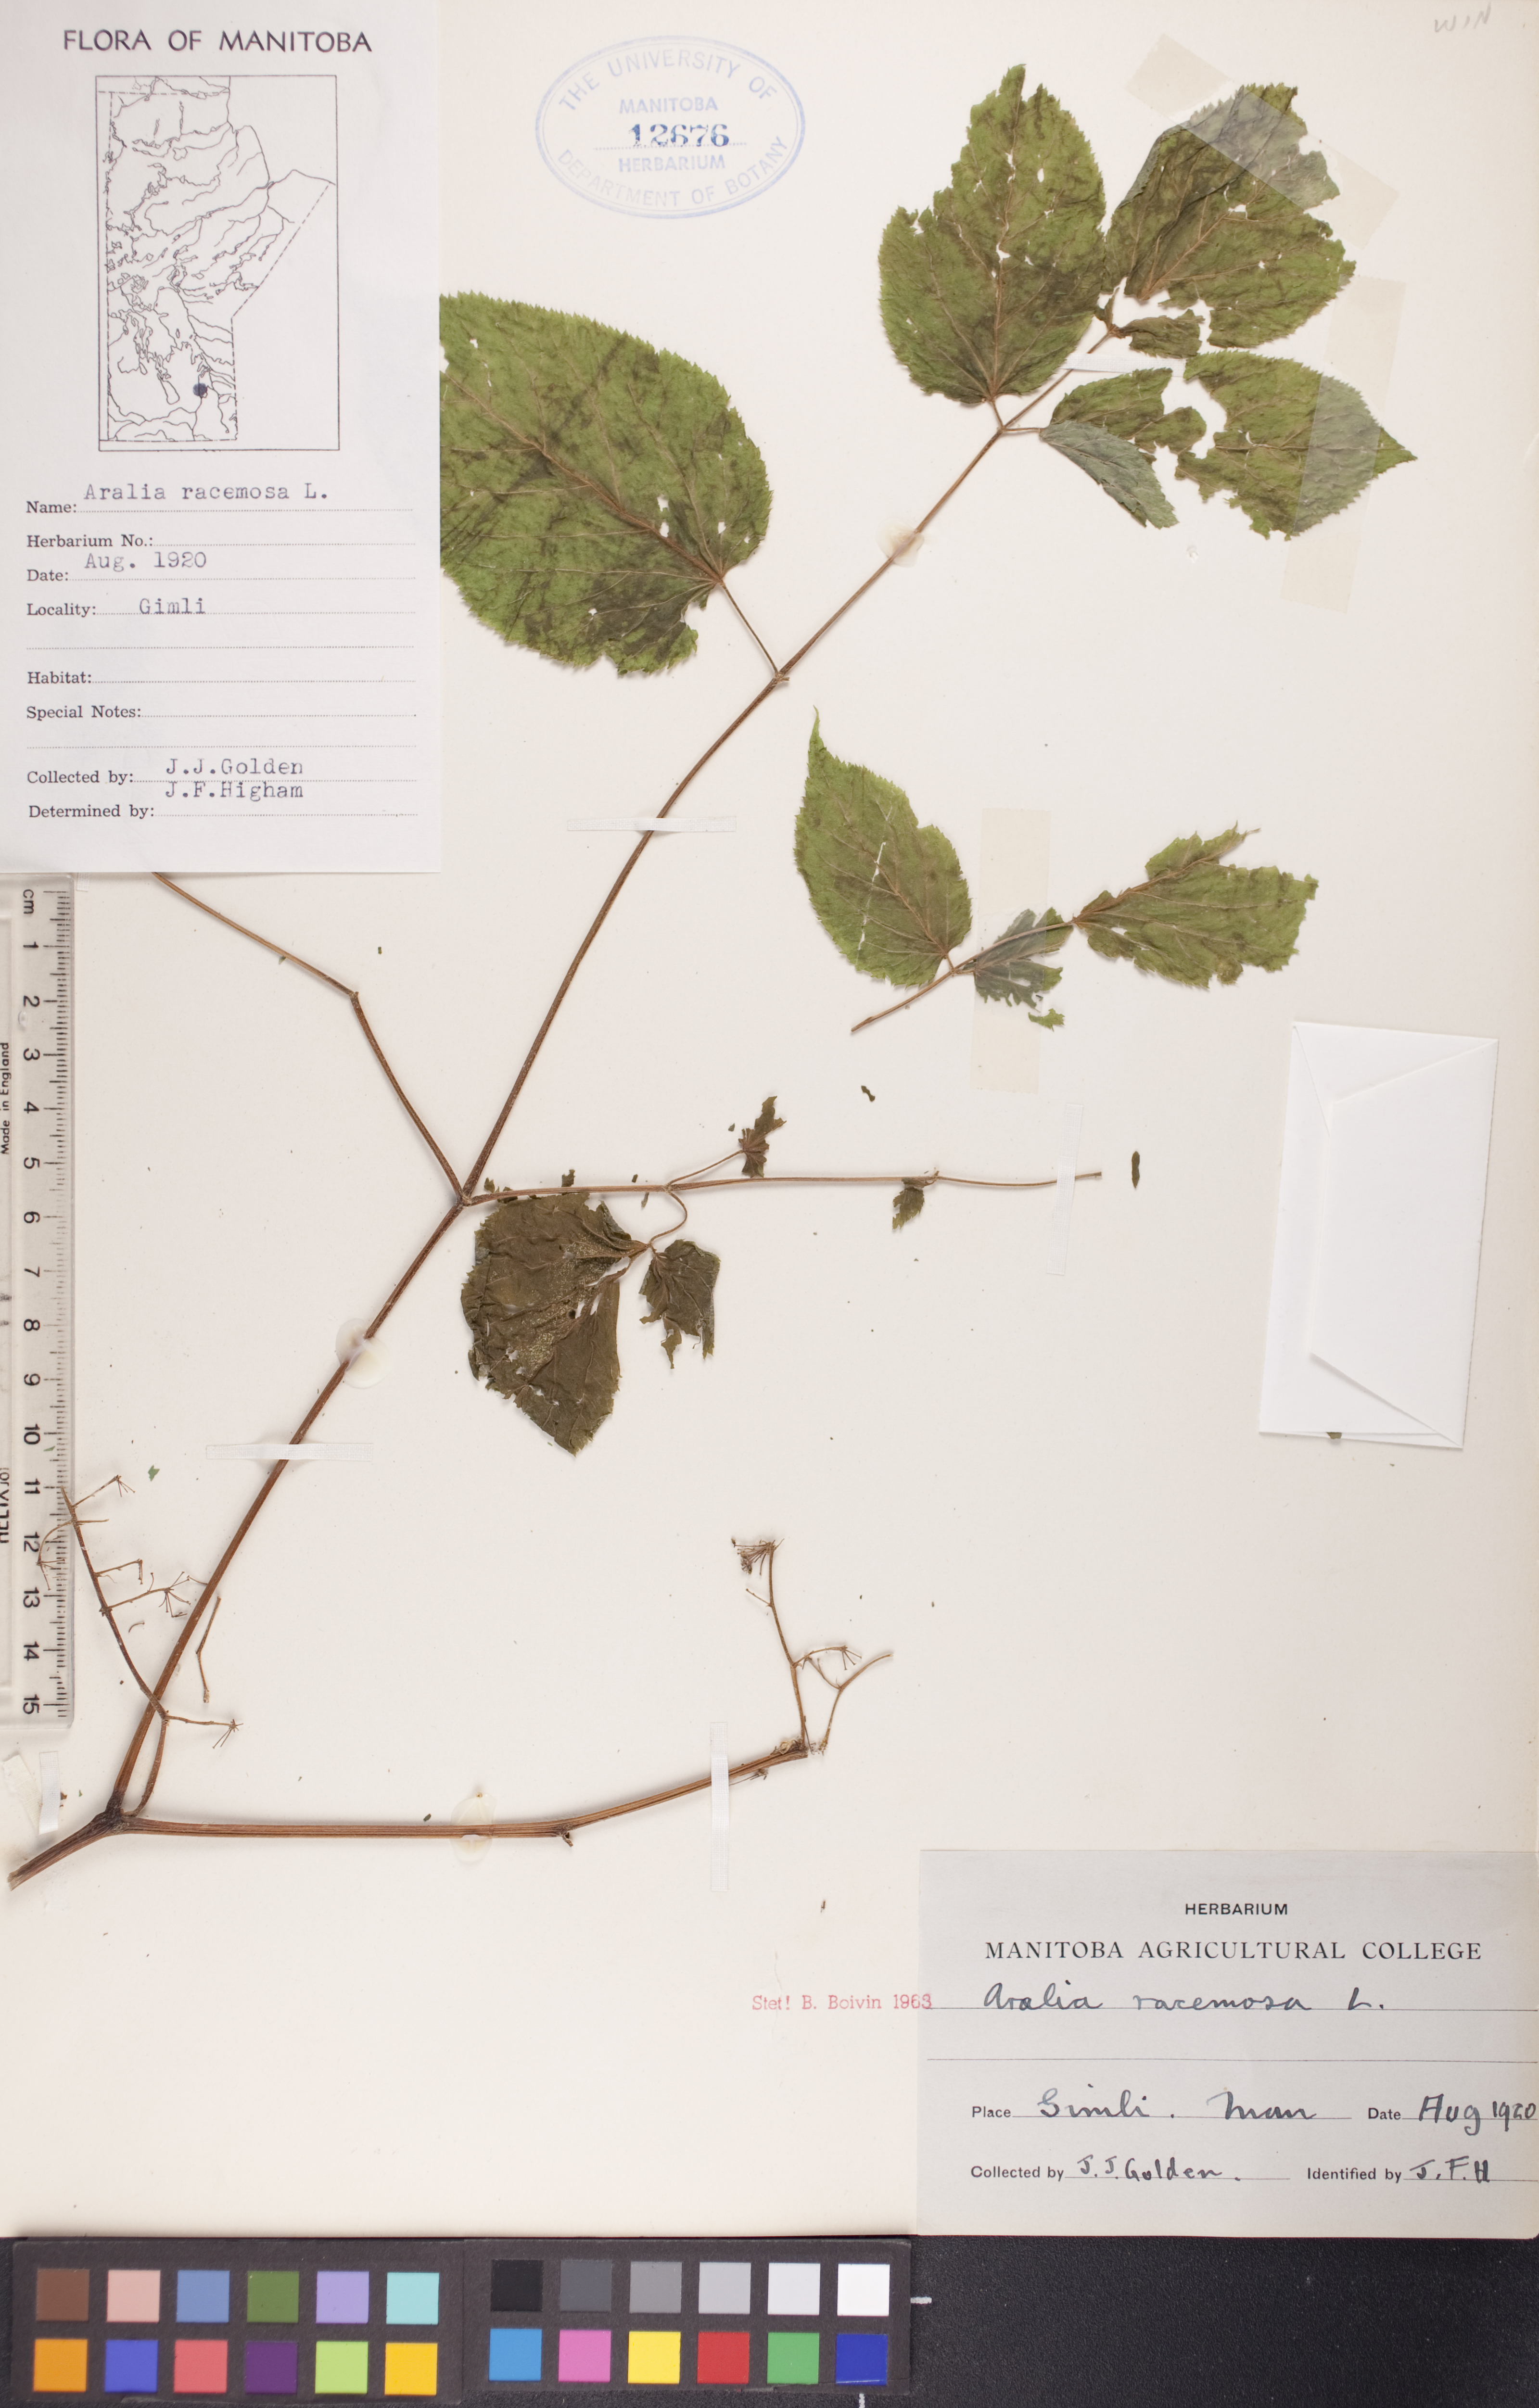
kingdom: Plantae
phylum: Tracheophyta
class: Magnoliopsida
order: Apiales
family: Araliaceae
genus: Aralia
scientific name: Aralia racemosa
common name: American-spikenard
